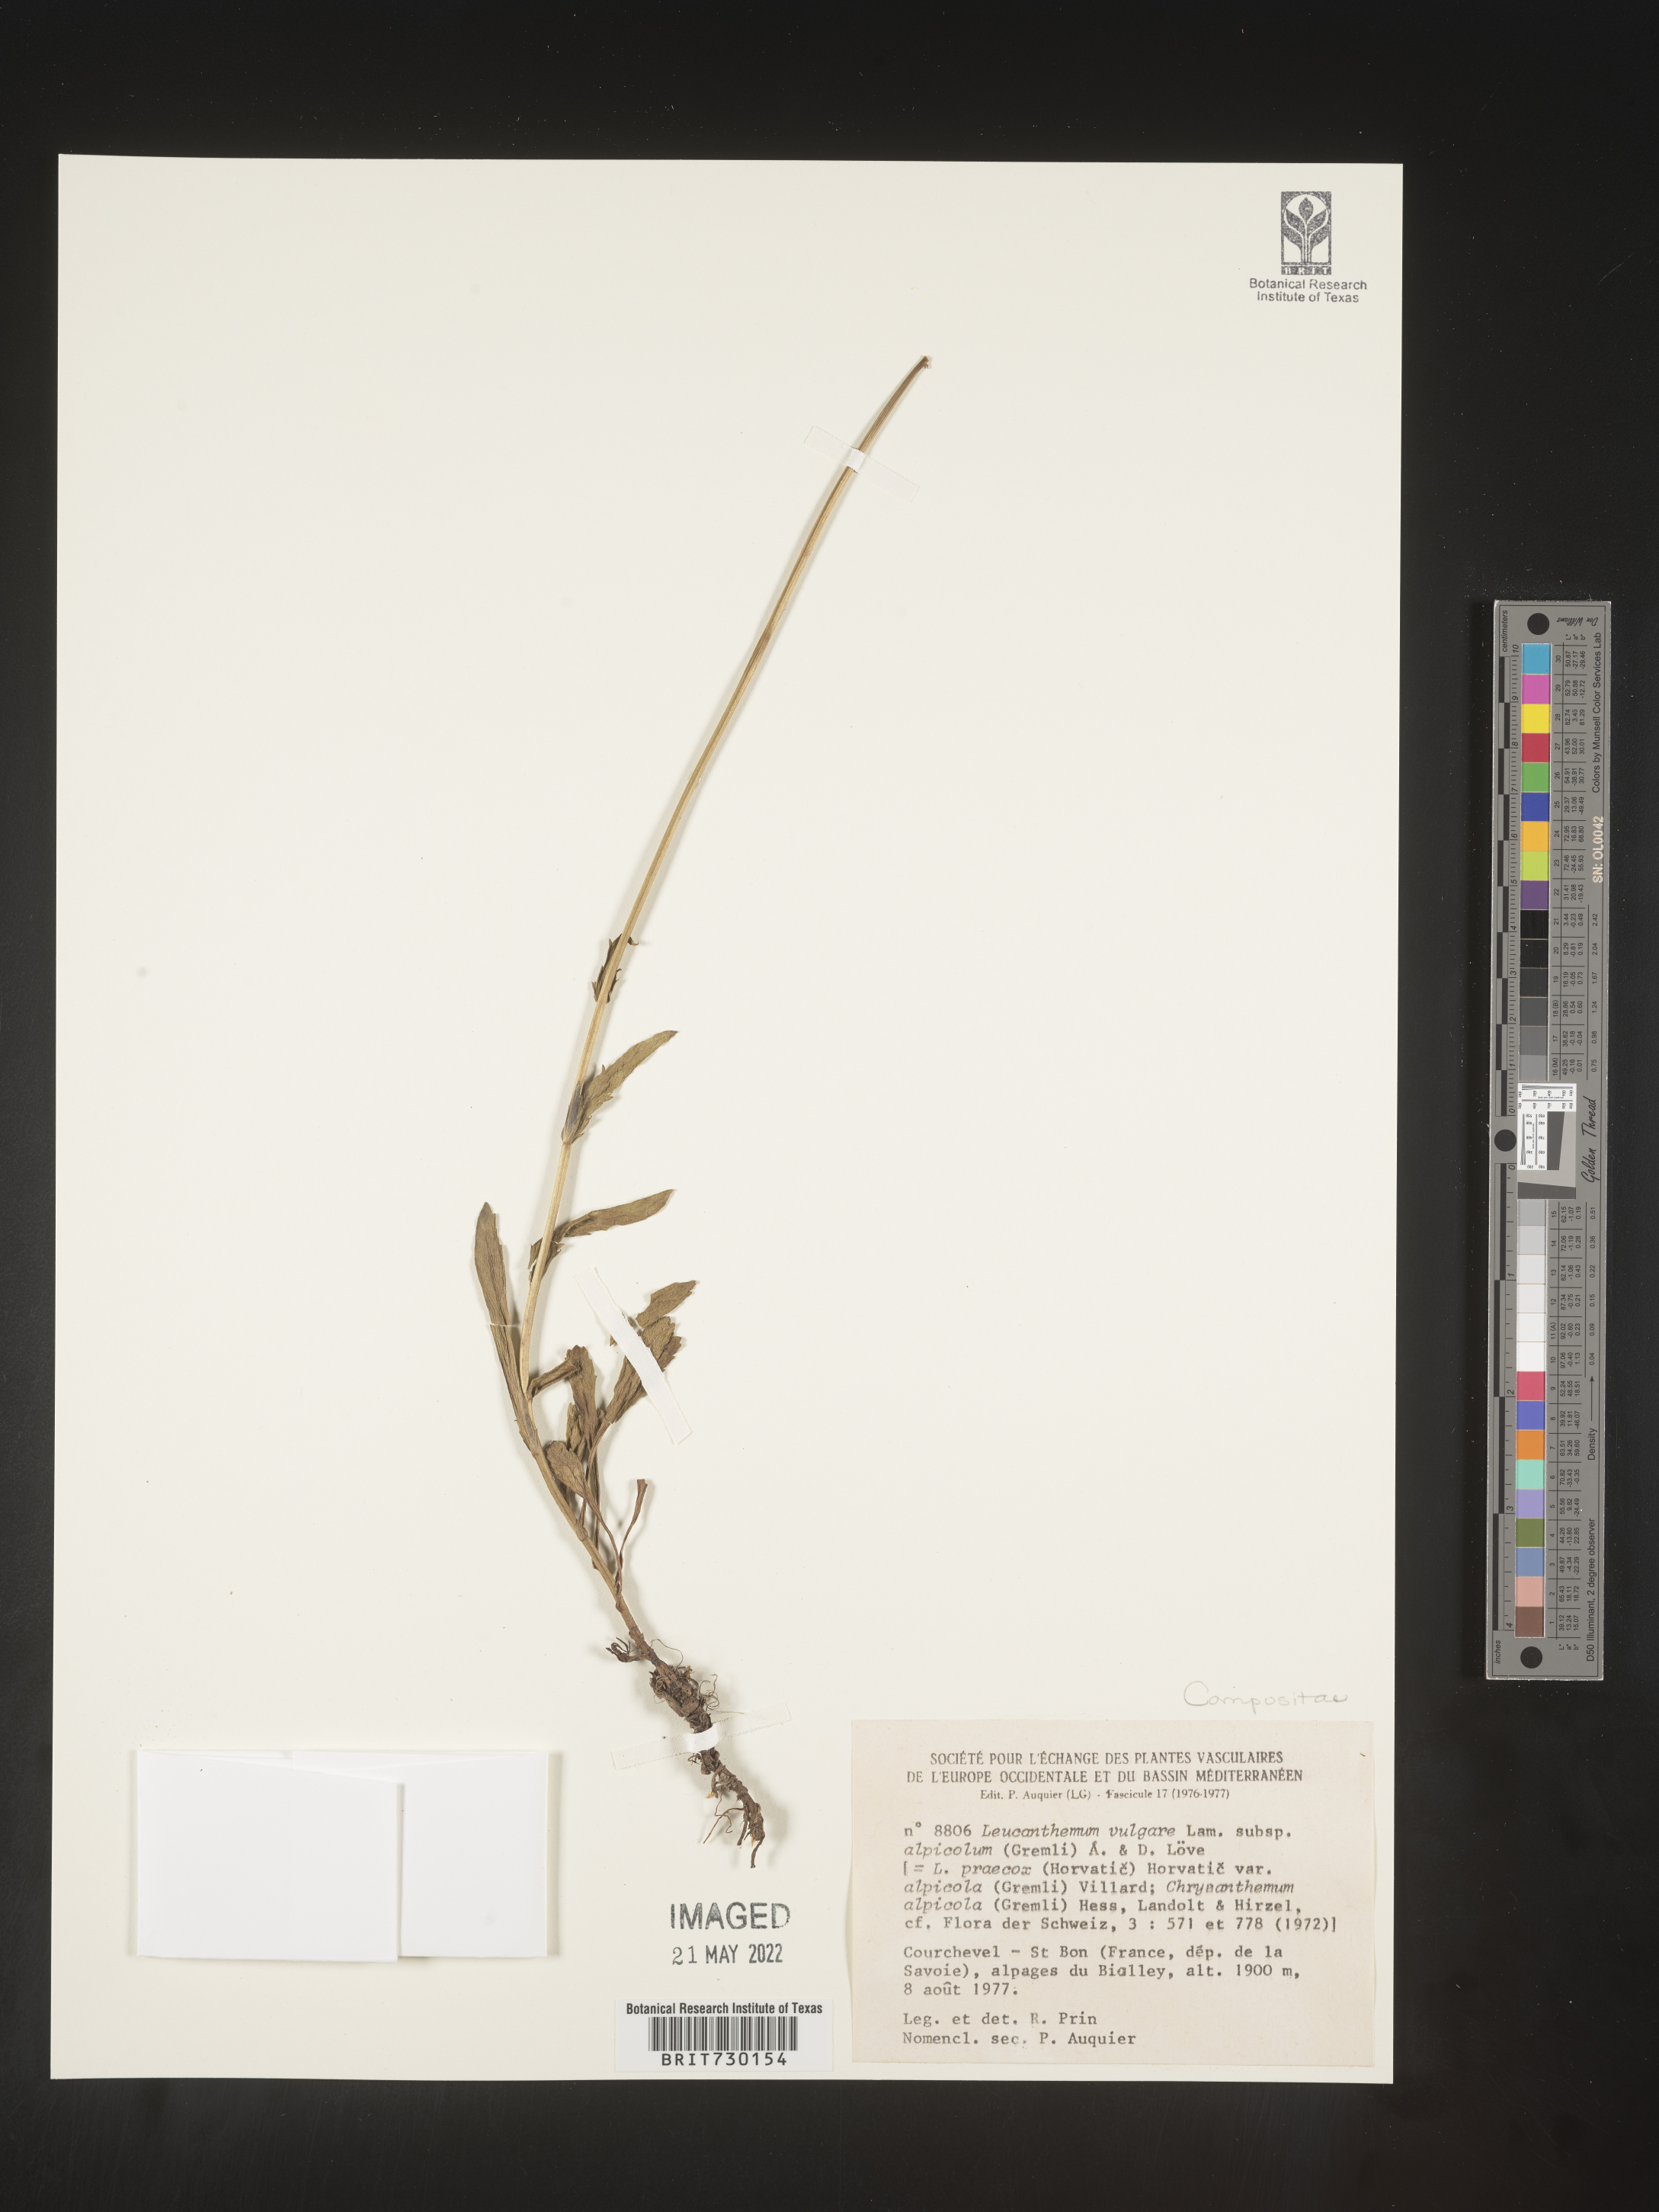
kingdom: Plantae
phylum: Tracheophyta
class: Magnoliopsida
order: Asterales
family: Asteraceae
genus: Leucanthemum
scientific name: Leucanthemum
